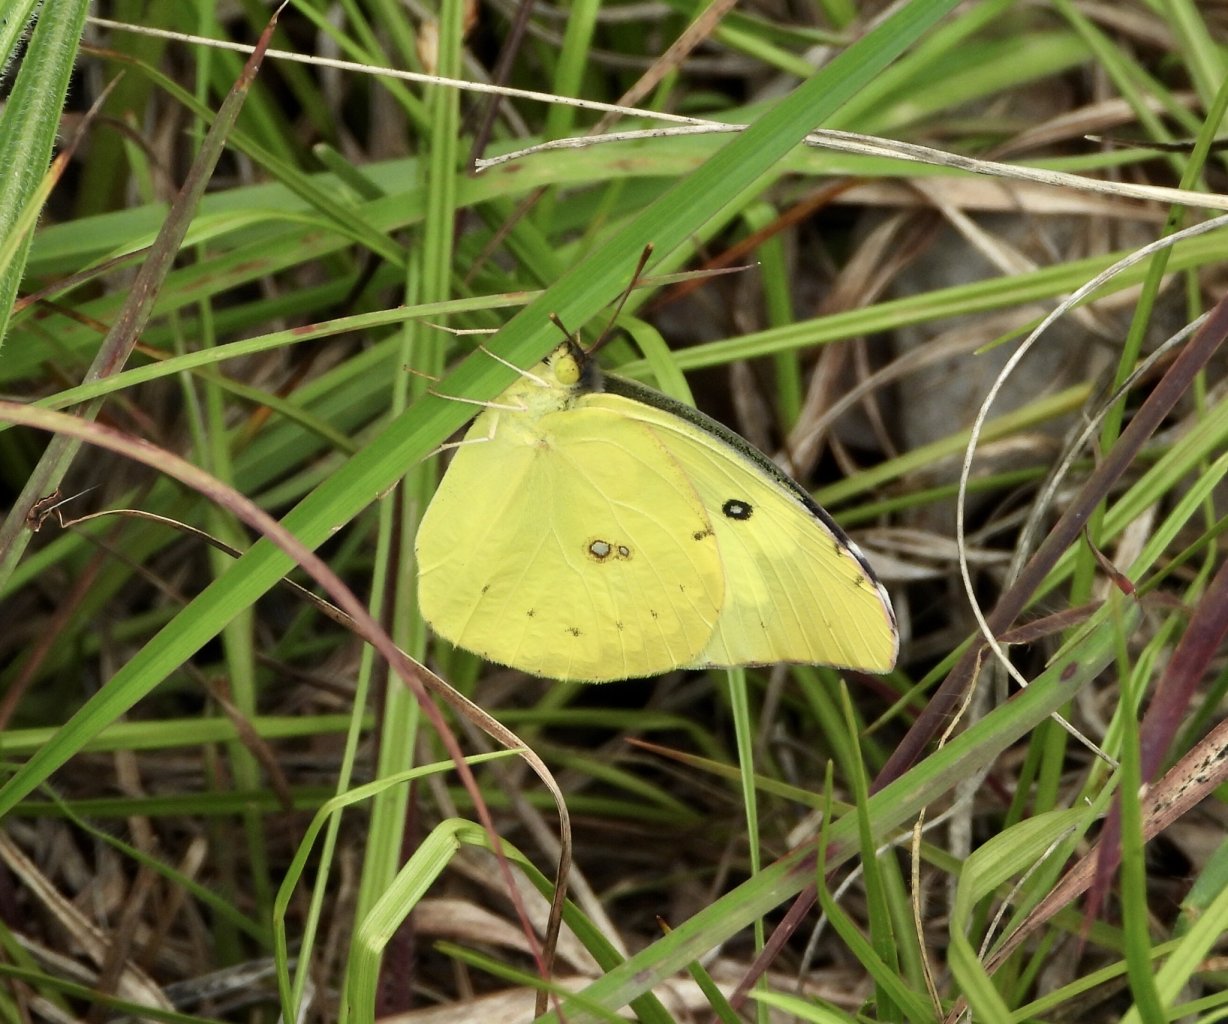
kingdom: Animalia
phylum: Arthropoda
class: Insecta
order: Lepidoptera
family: Pieridae
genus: Zerene
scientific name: Zerene cesonia
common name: Southern Dogface
